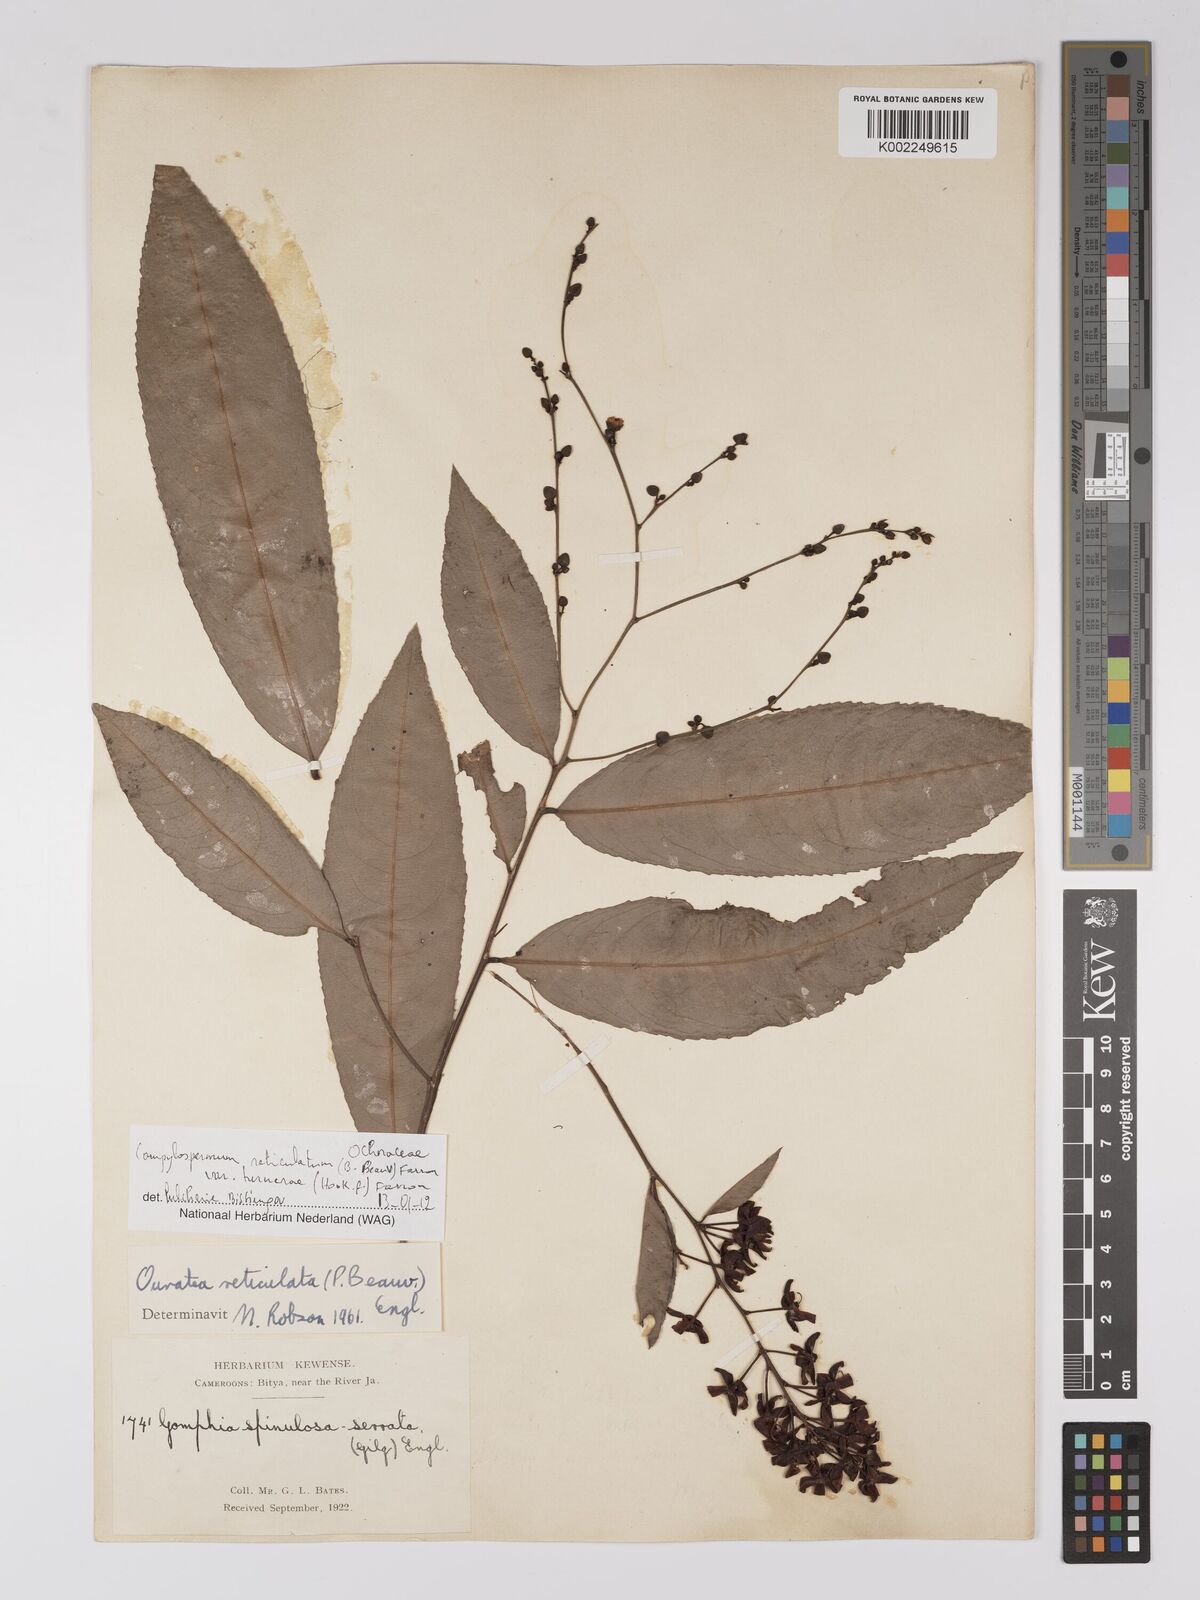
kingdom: Plantae
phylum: Tracheophyta
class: Magnoliopsida
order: Malpighiales
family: Ochnaceae
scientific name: Ochnaceae
